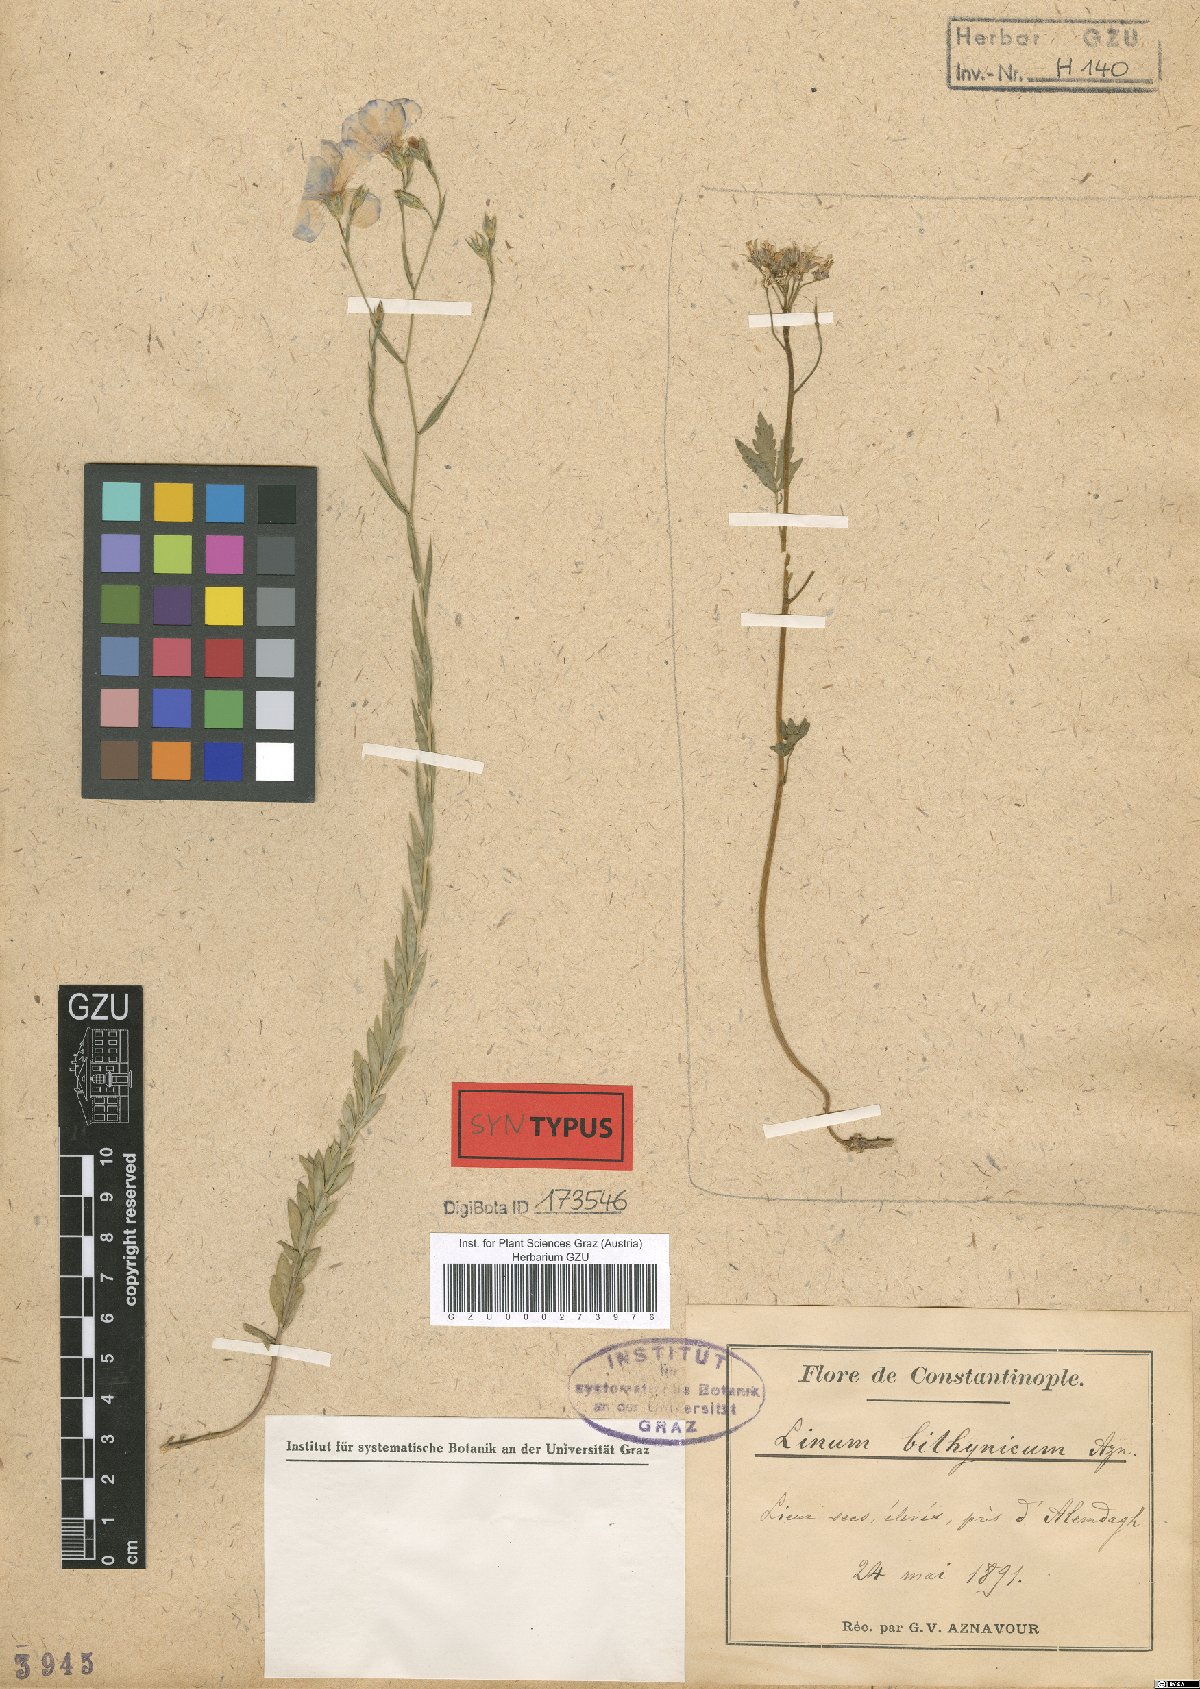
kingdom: Plantae
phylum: Tracheophyta
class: Magnoliopsida
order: Malpighiales
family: Linaceae
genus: Linum
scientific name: Linum bithynicum
